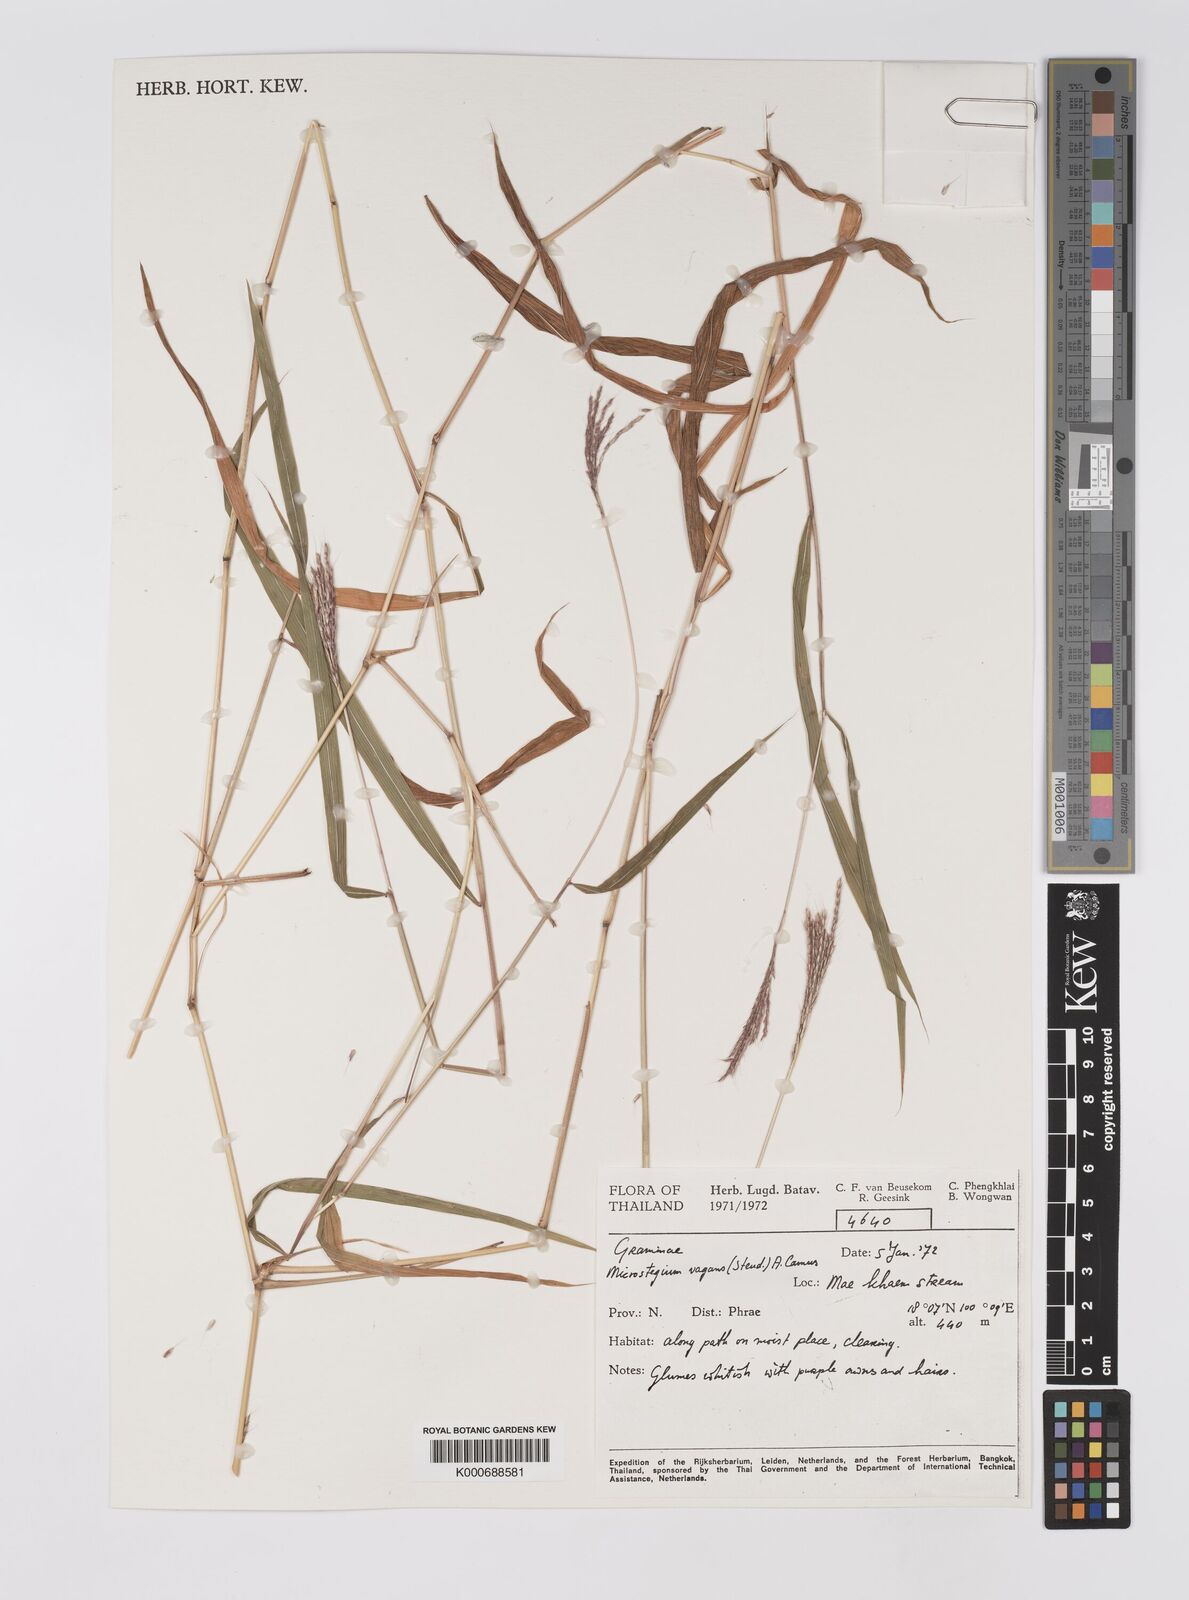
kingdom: Plantae
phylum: Tracheophyta
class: Liliopsida
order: Poales
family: Poaceae
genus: Microstegium
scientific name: Microstegium fasciculatum
